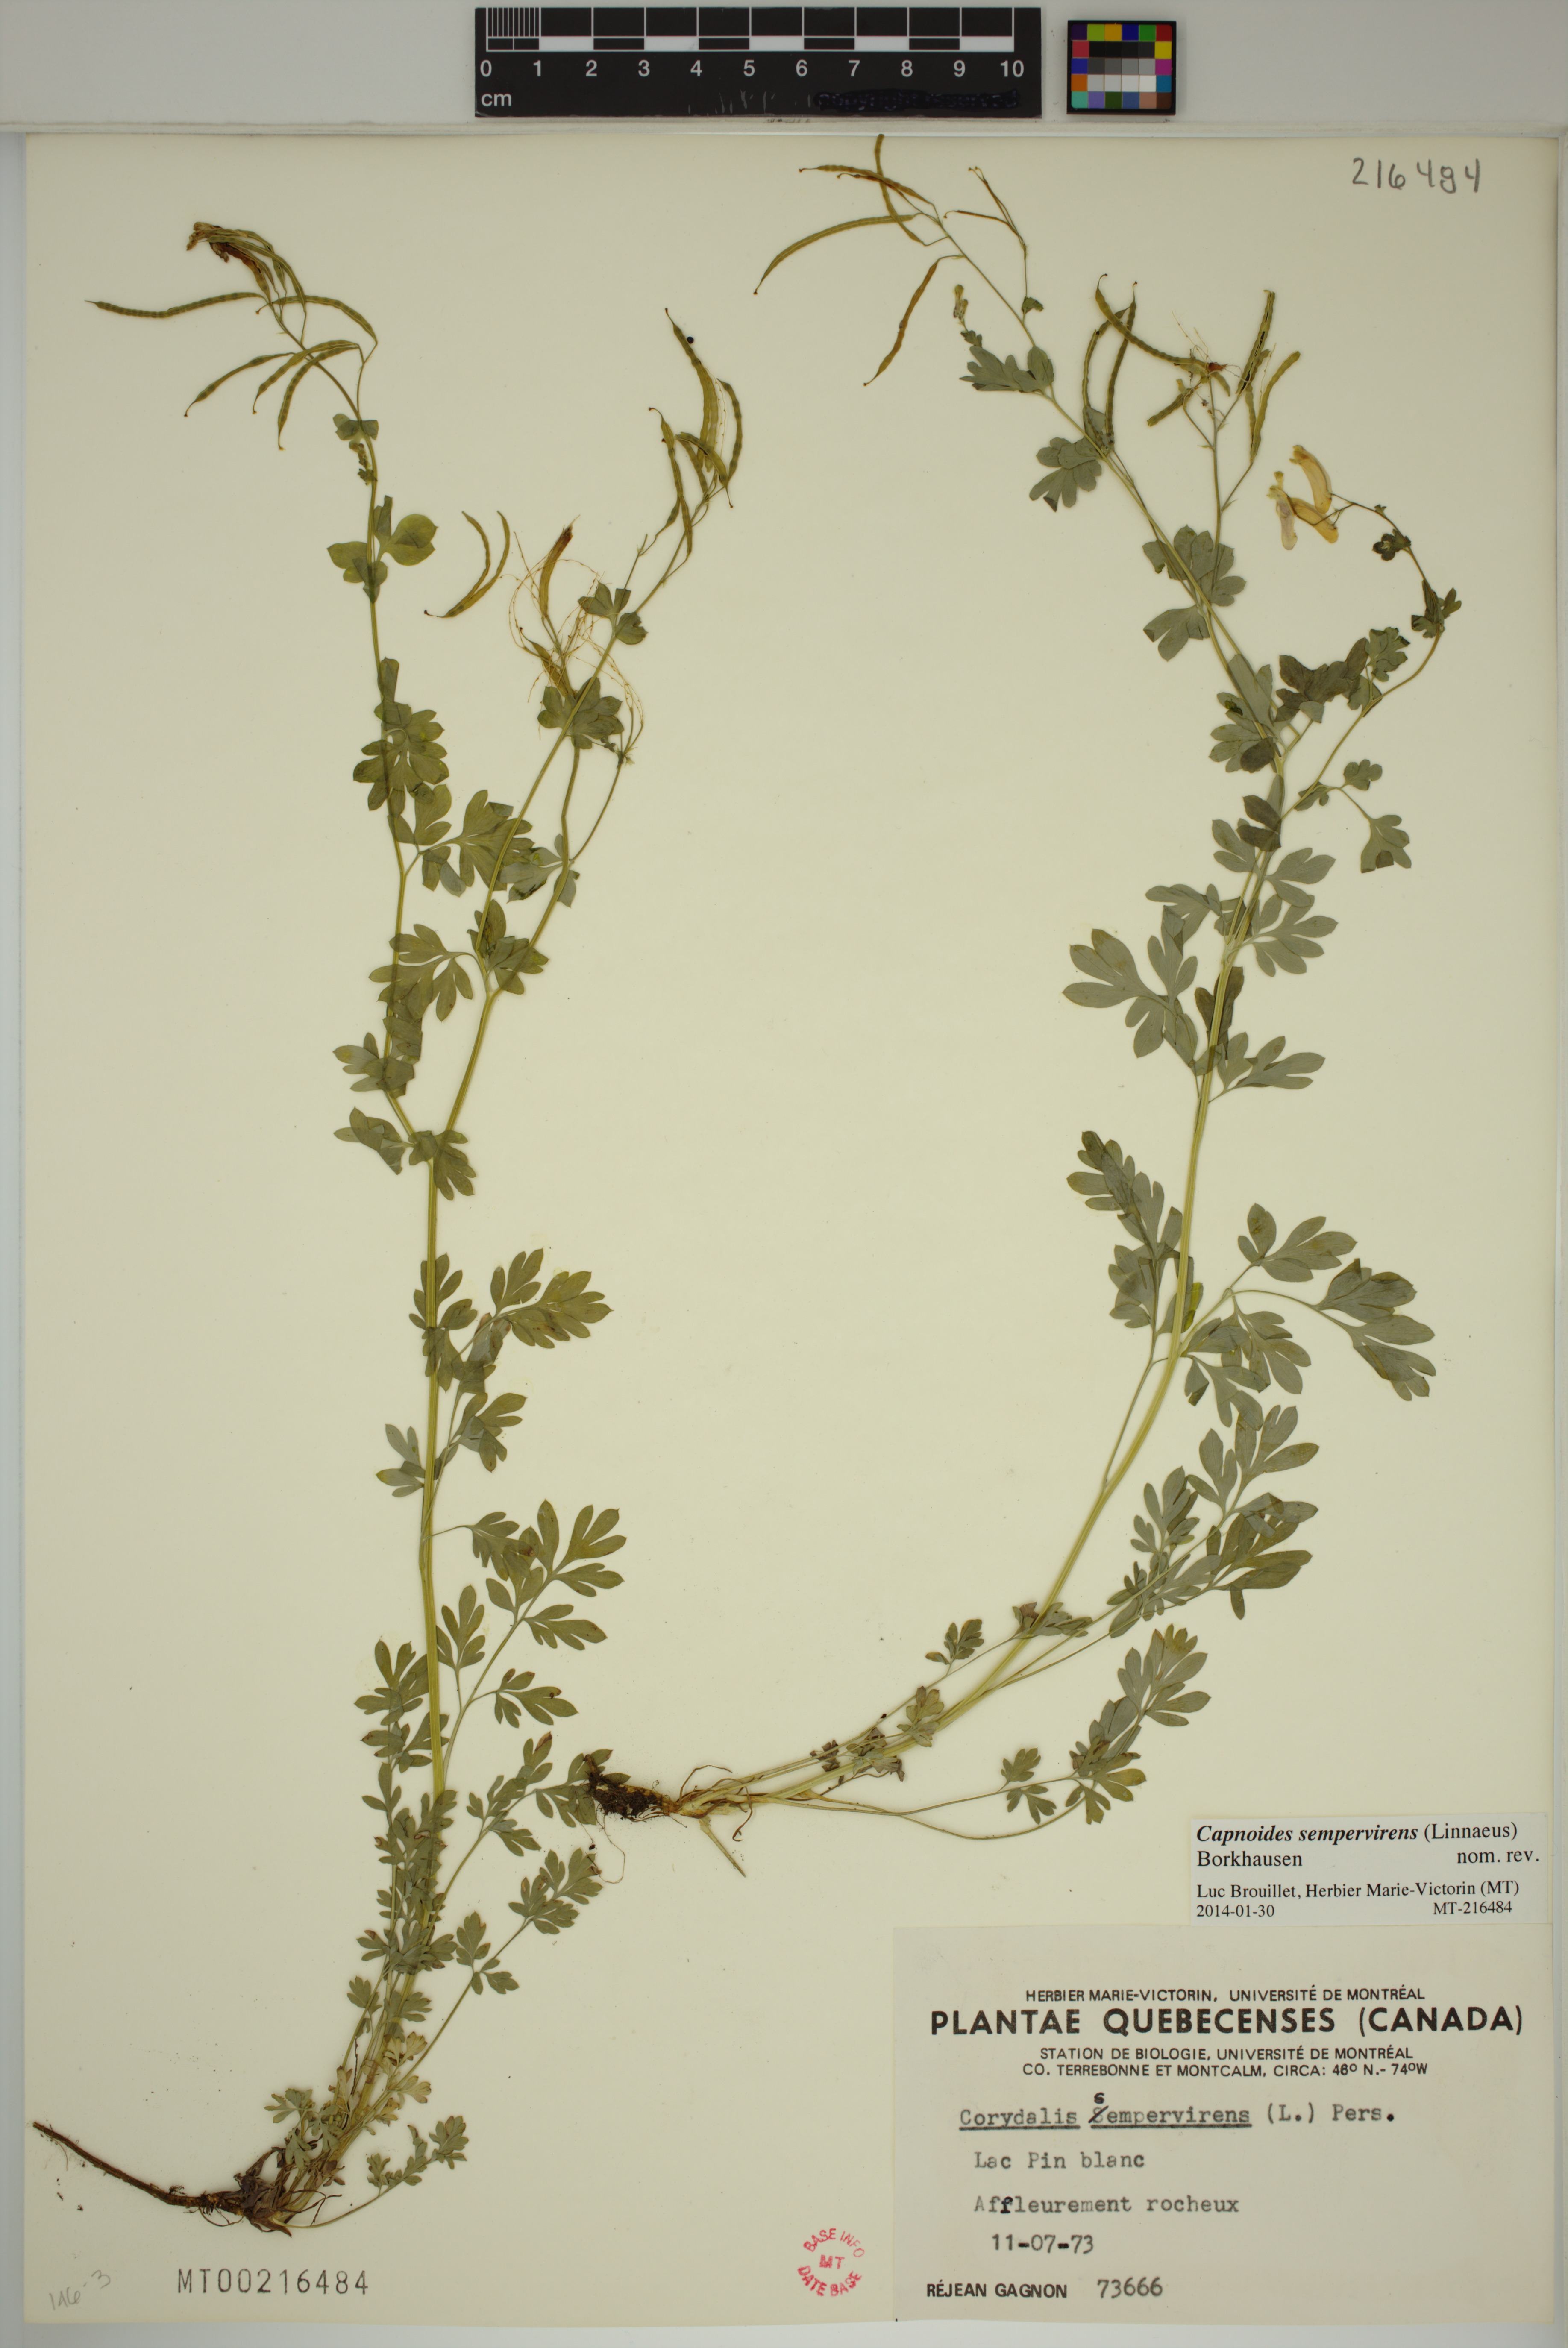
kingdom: Plantae
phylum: Tracheophyta
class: Magnoliopsida
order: Ranunculales
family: Papaveraceae
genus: Capnoides
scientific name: Capnoides sempervirens
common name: Rock harlequin
